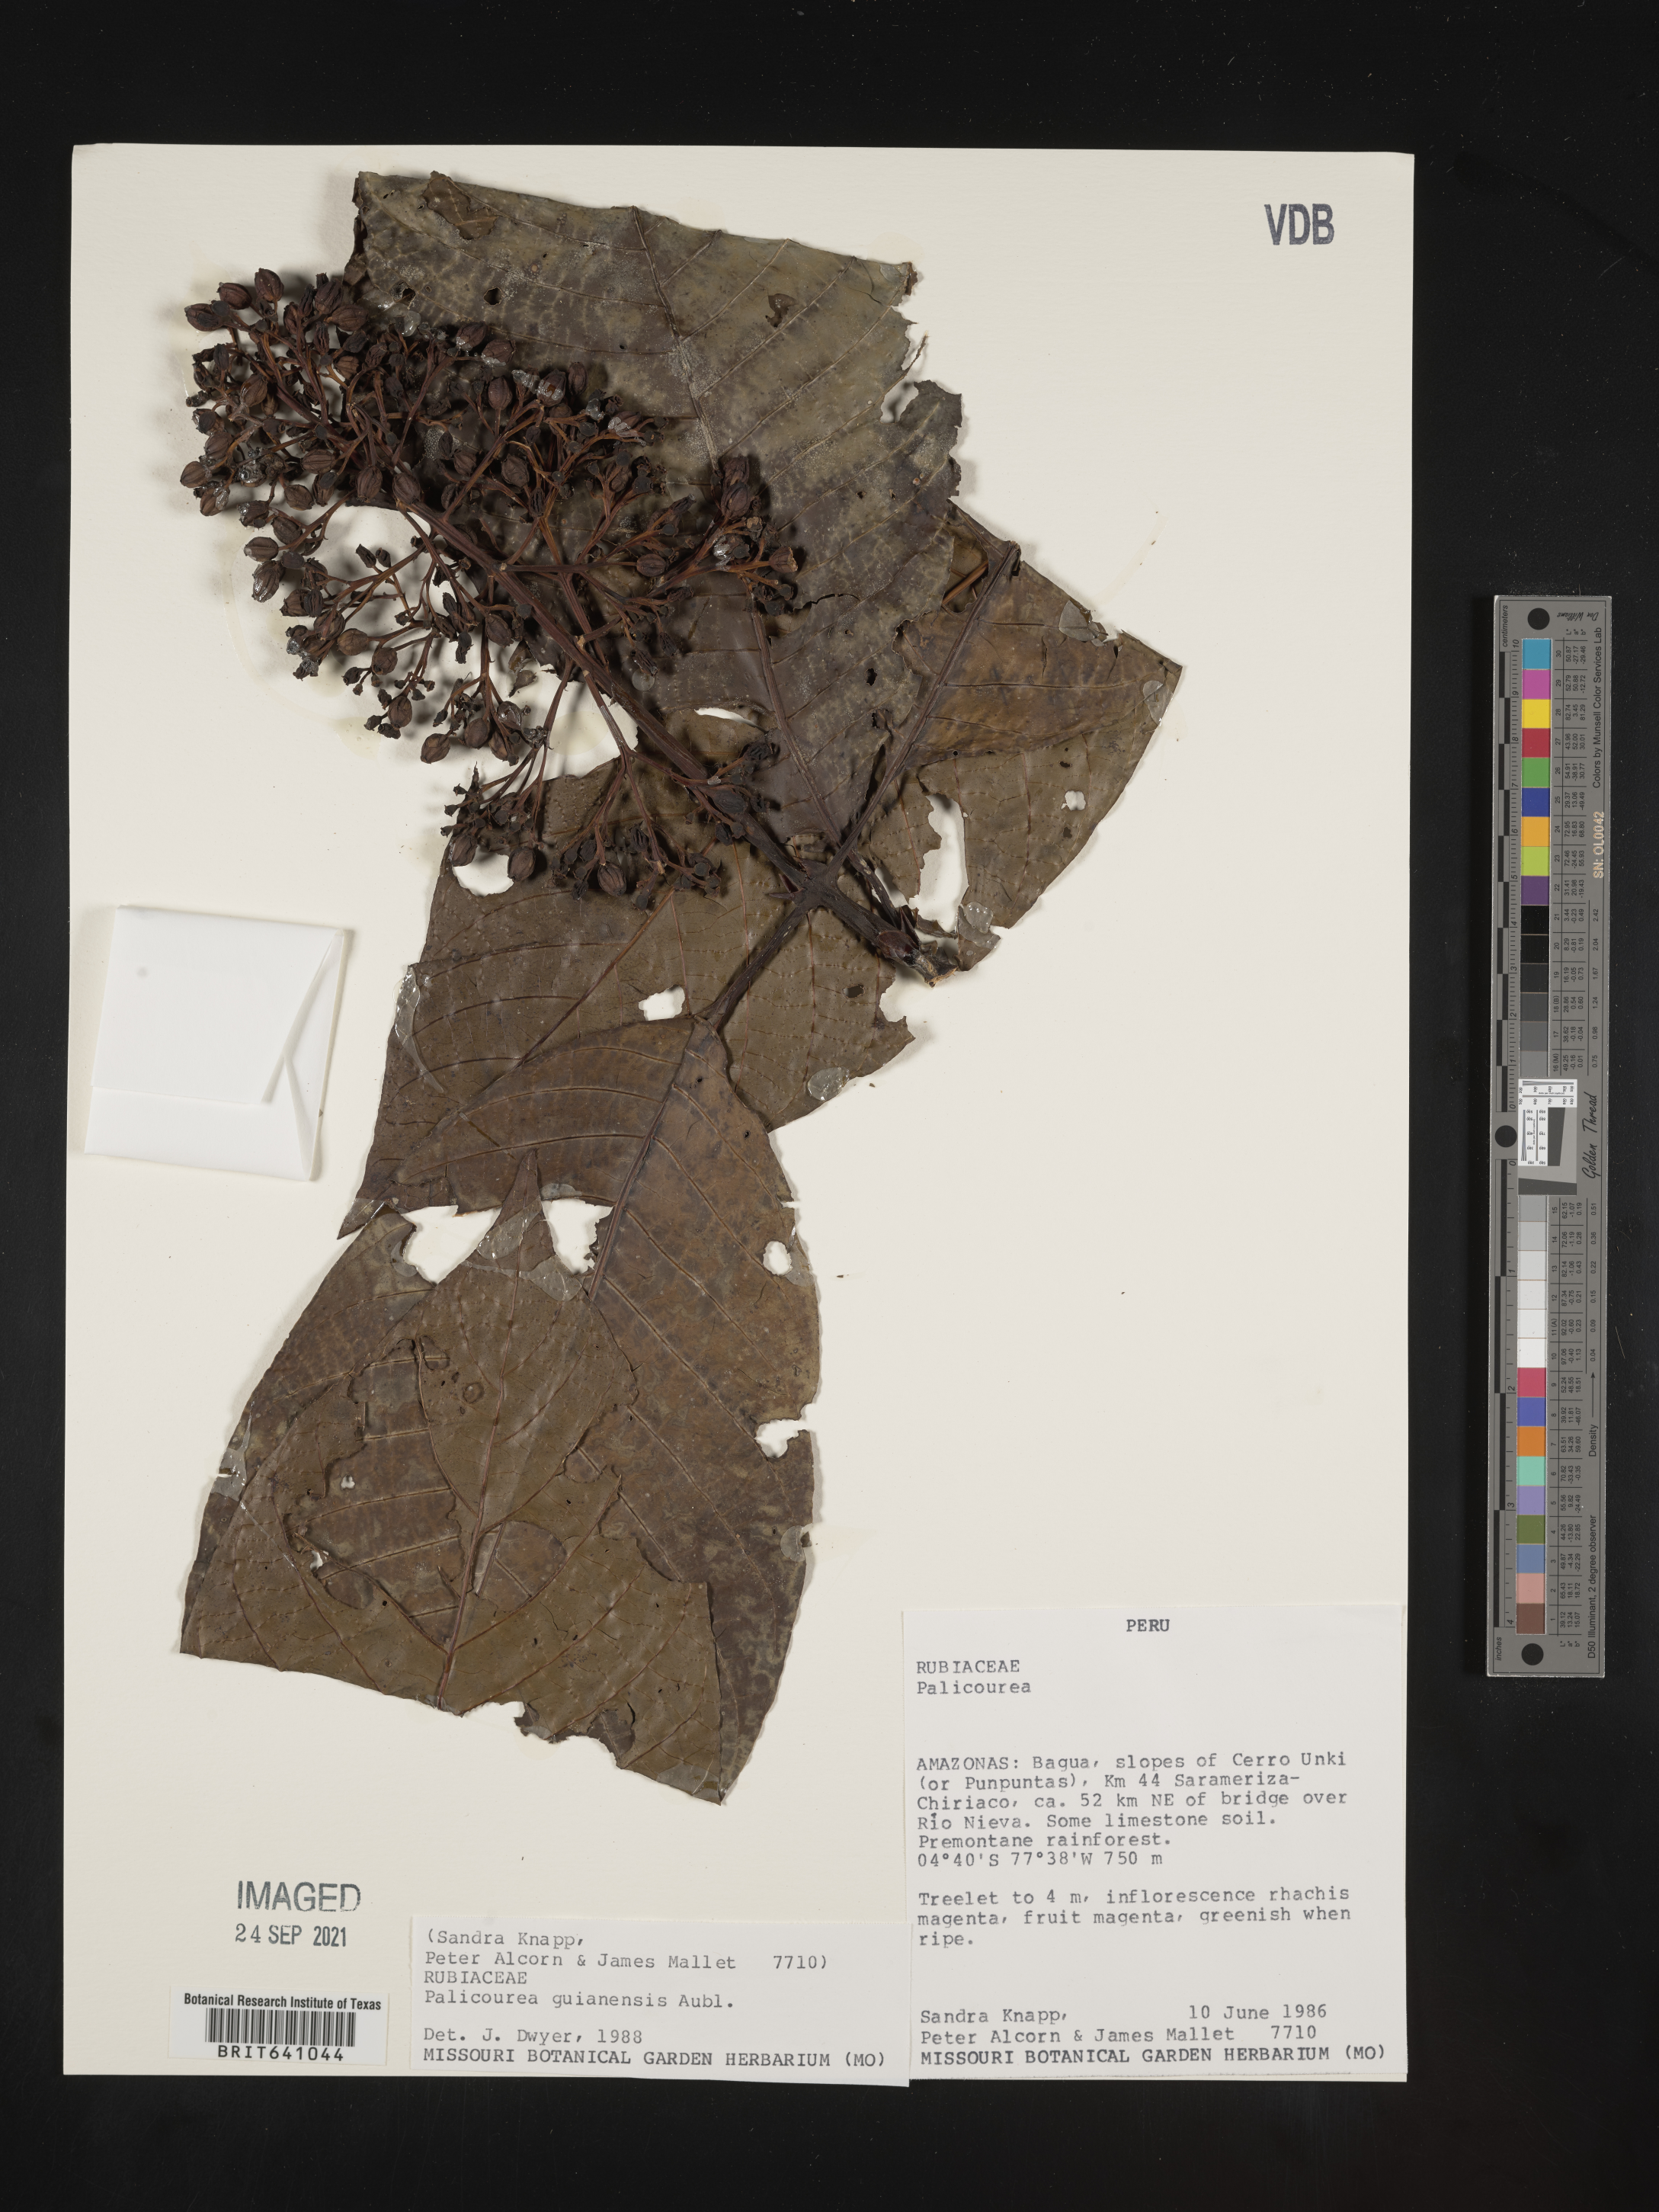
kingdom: Plantae
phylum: Tracheophyta
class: Magnoliopsida
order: Gentianales
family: Rubiaceae
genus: Palicourea
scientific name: Palicourea
